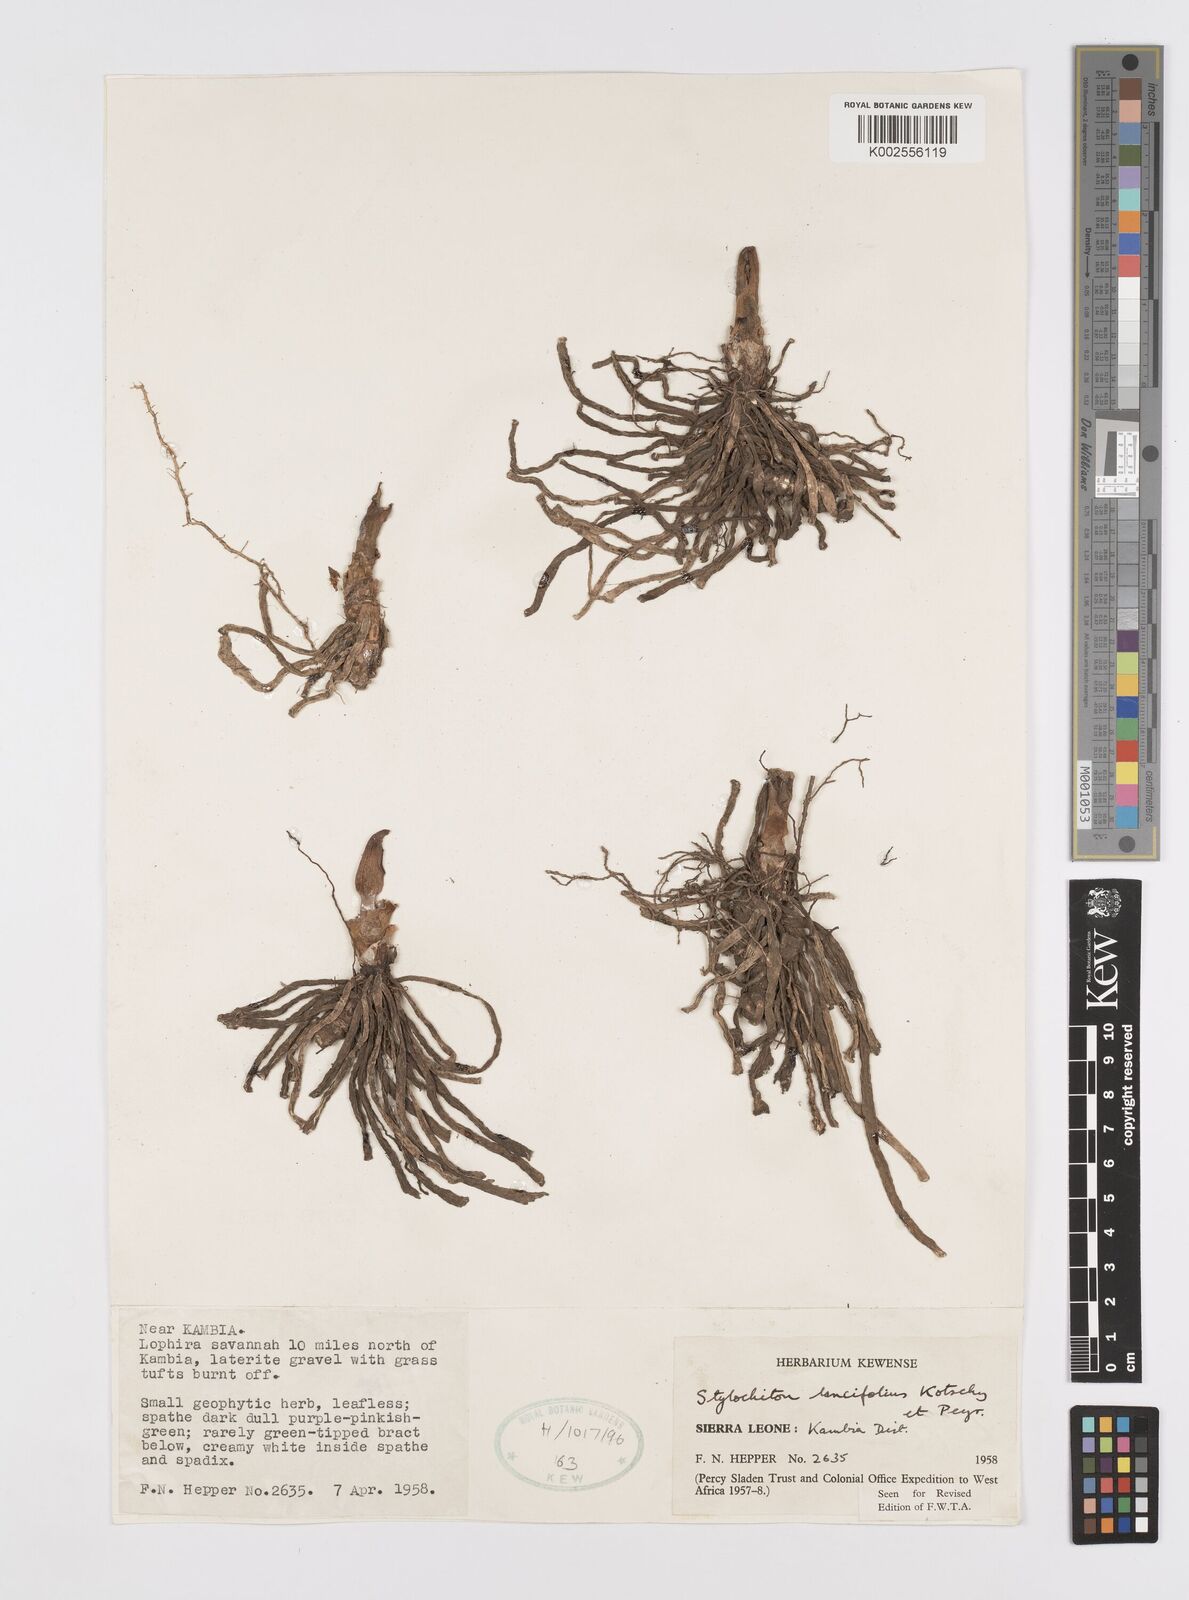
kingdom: Plantae
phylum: Tracheophyta
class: Liliopsida
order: Alismatales
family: Araceae
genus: Stylochaeton
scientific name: Stylochaeton lancifolium
